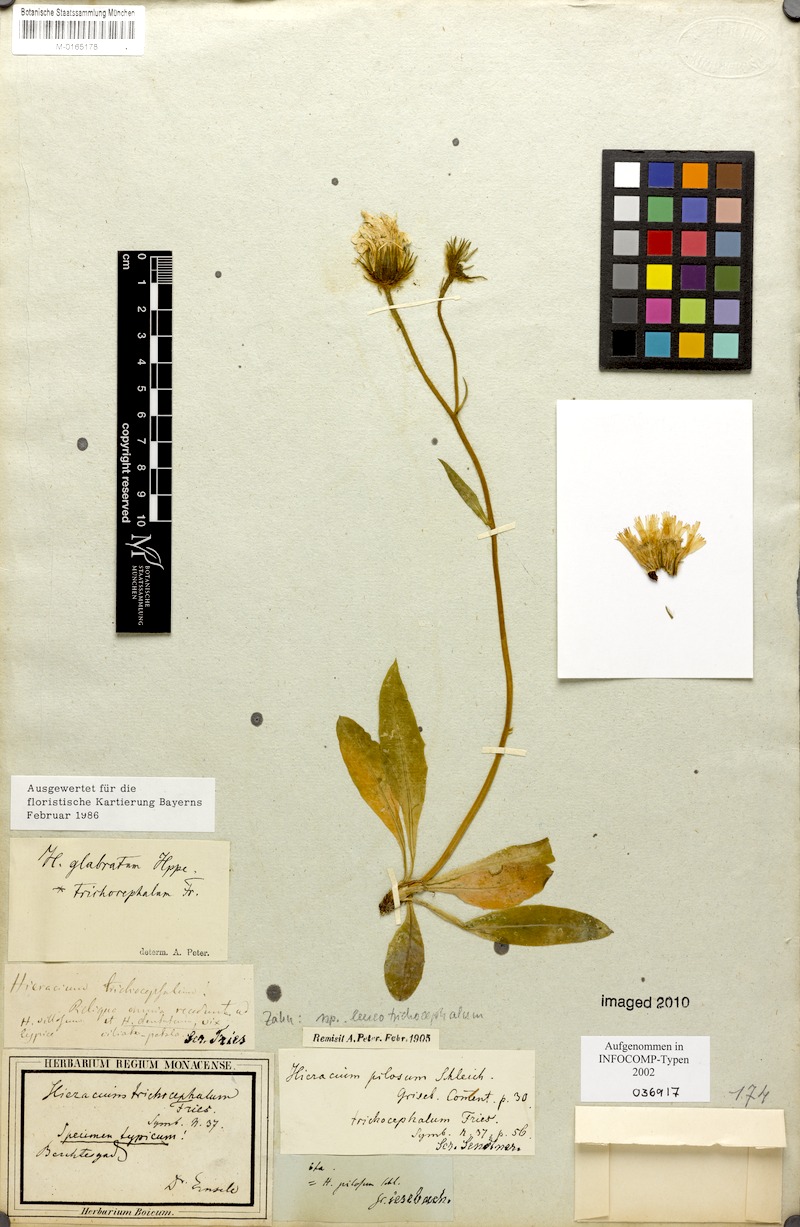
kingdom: Plantae
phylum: Tracheophyta
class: Magnoliopsida
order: Asterales
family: Asteraceae
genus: Hieracium
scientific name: Hieracium glabratum
